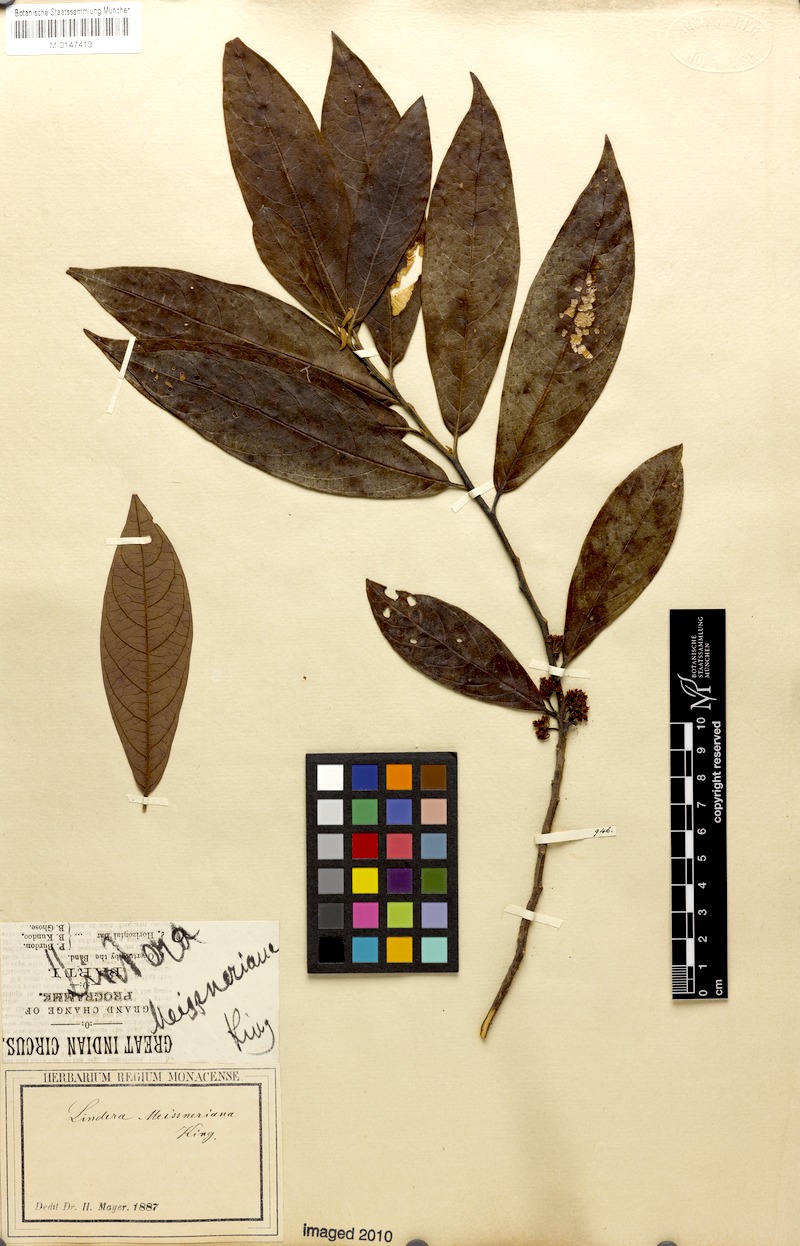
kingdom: Plantae
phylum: Tracheophyta
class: Magnoliopsida
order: Laurales
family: Lauraceae
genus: Lindera
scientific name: Lindera meissneri
